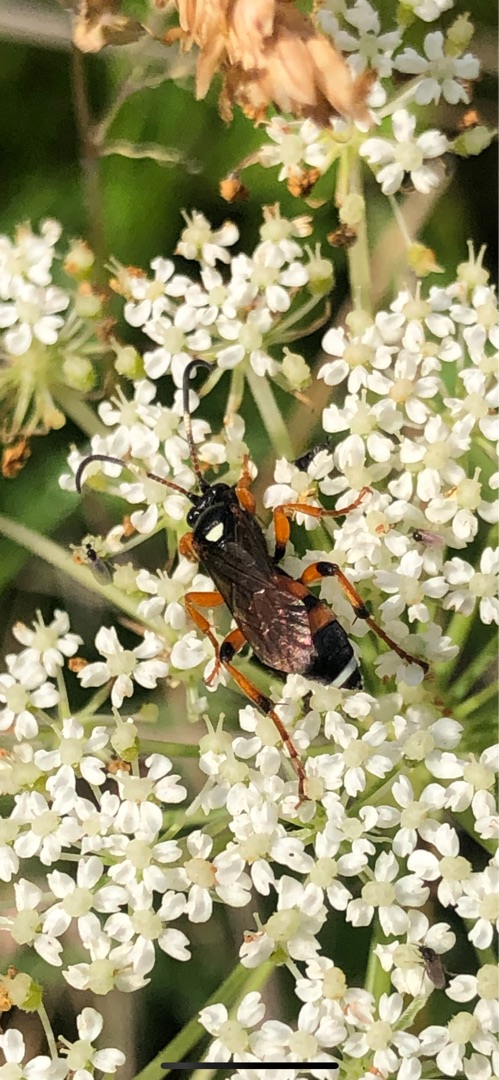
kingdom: Animalia
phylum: Arthropoda
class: Insecta
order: Hymenoptera
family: Ichneumonidae
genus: Ichneumon
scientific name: Ichneumon sarcitorius
